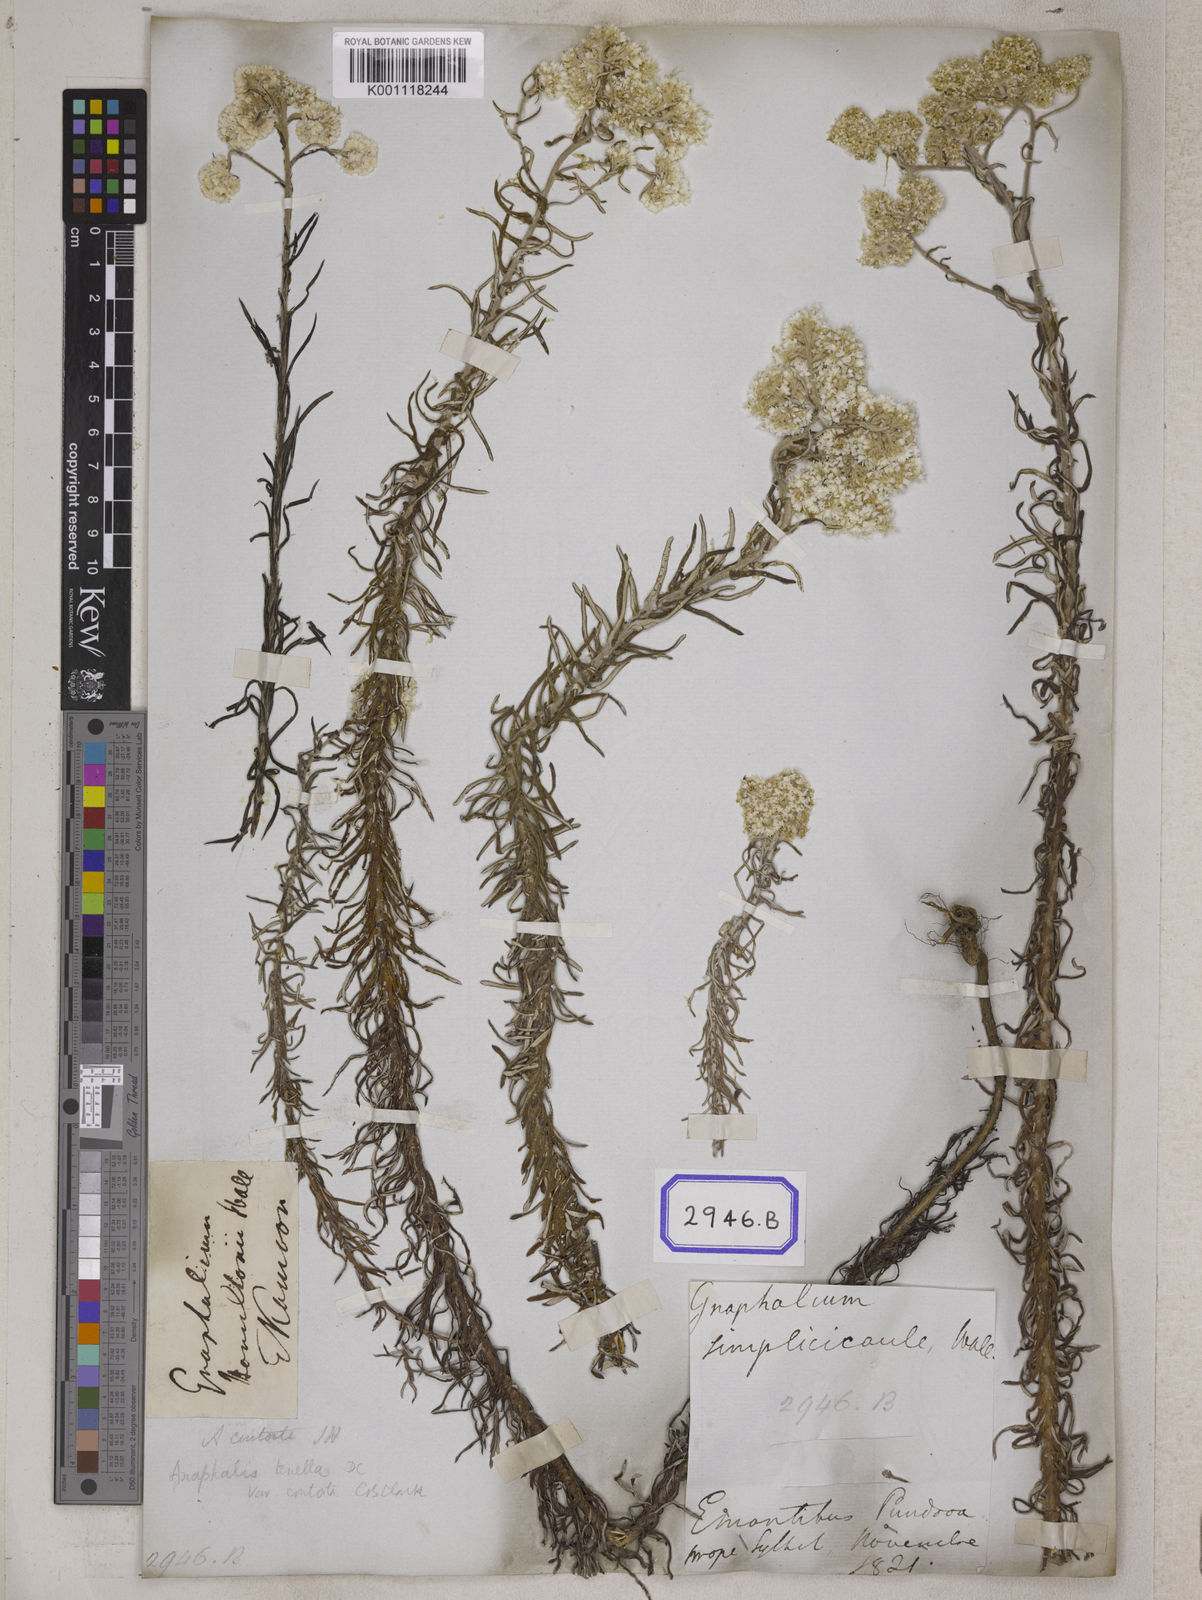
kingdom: Plantae
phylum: Tracheophyta
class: Magnoliopsida
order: Asterales
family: Asteraceae
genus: Anaphalis
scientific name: Anaphalis contorta
